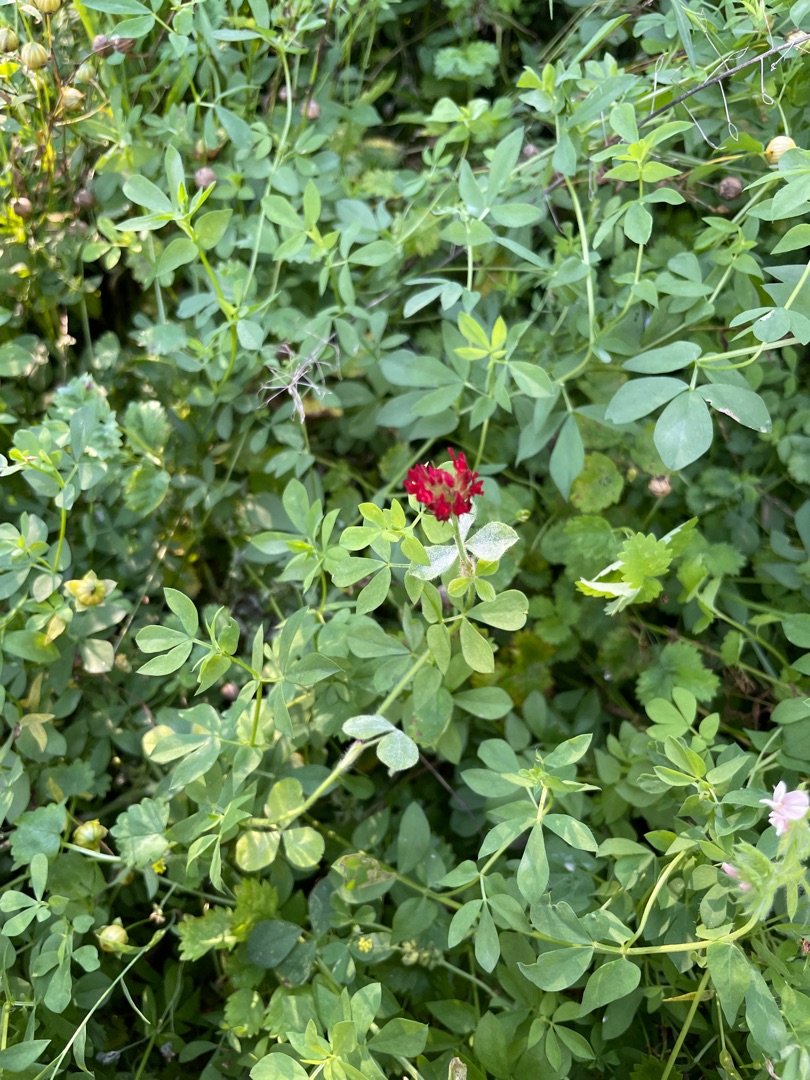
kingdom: Plantae
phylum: Tracheophyta
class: Magnoliopsida
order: Fabales
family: Fabaceae
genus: Trifolium
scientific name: Trifolium incarnatum
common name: Blod-kløver
